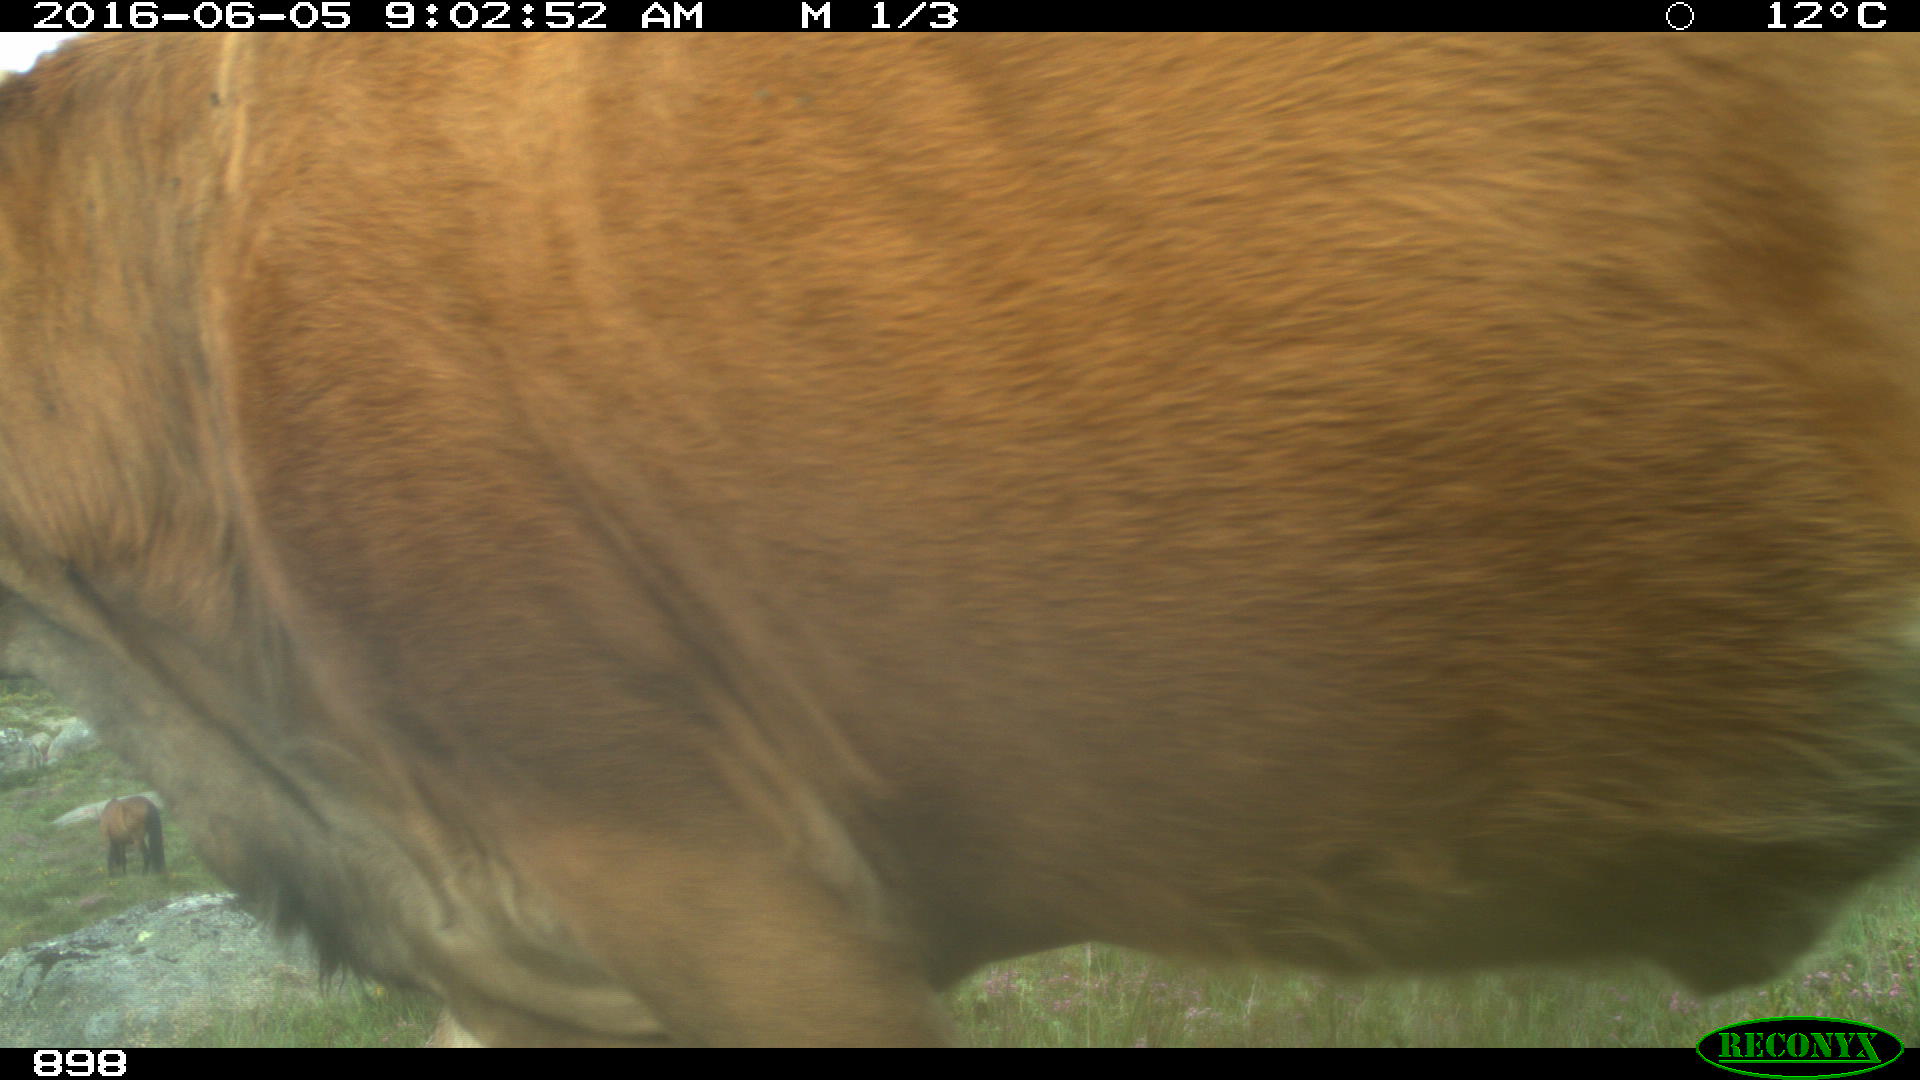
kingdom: Animalia
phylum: Chordata
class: Mammalia
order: Artiodactyla
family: Bovidae
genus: Bos
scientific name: Bos taurus
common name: Domesticated cattle
